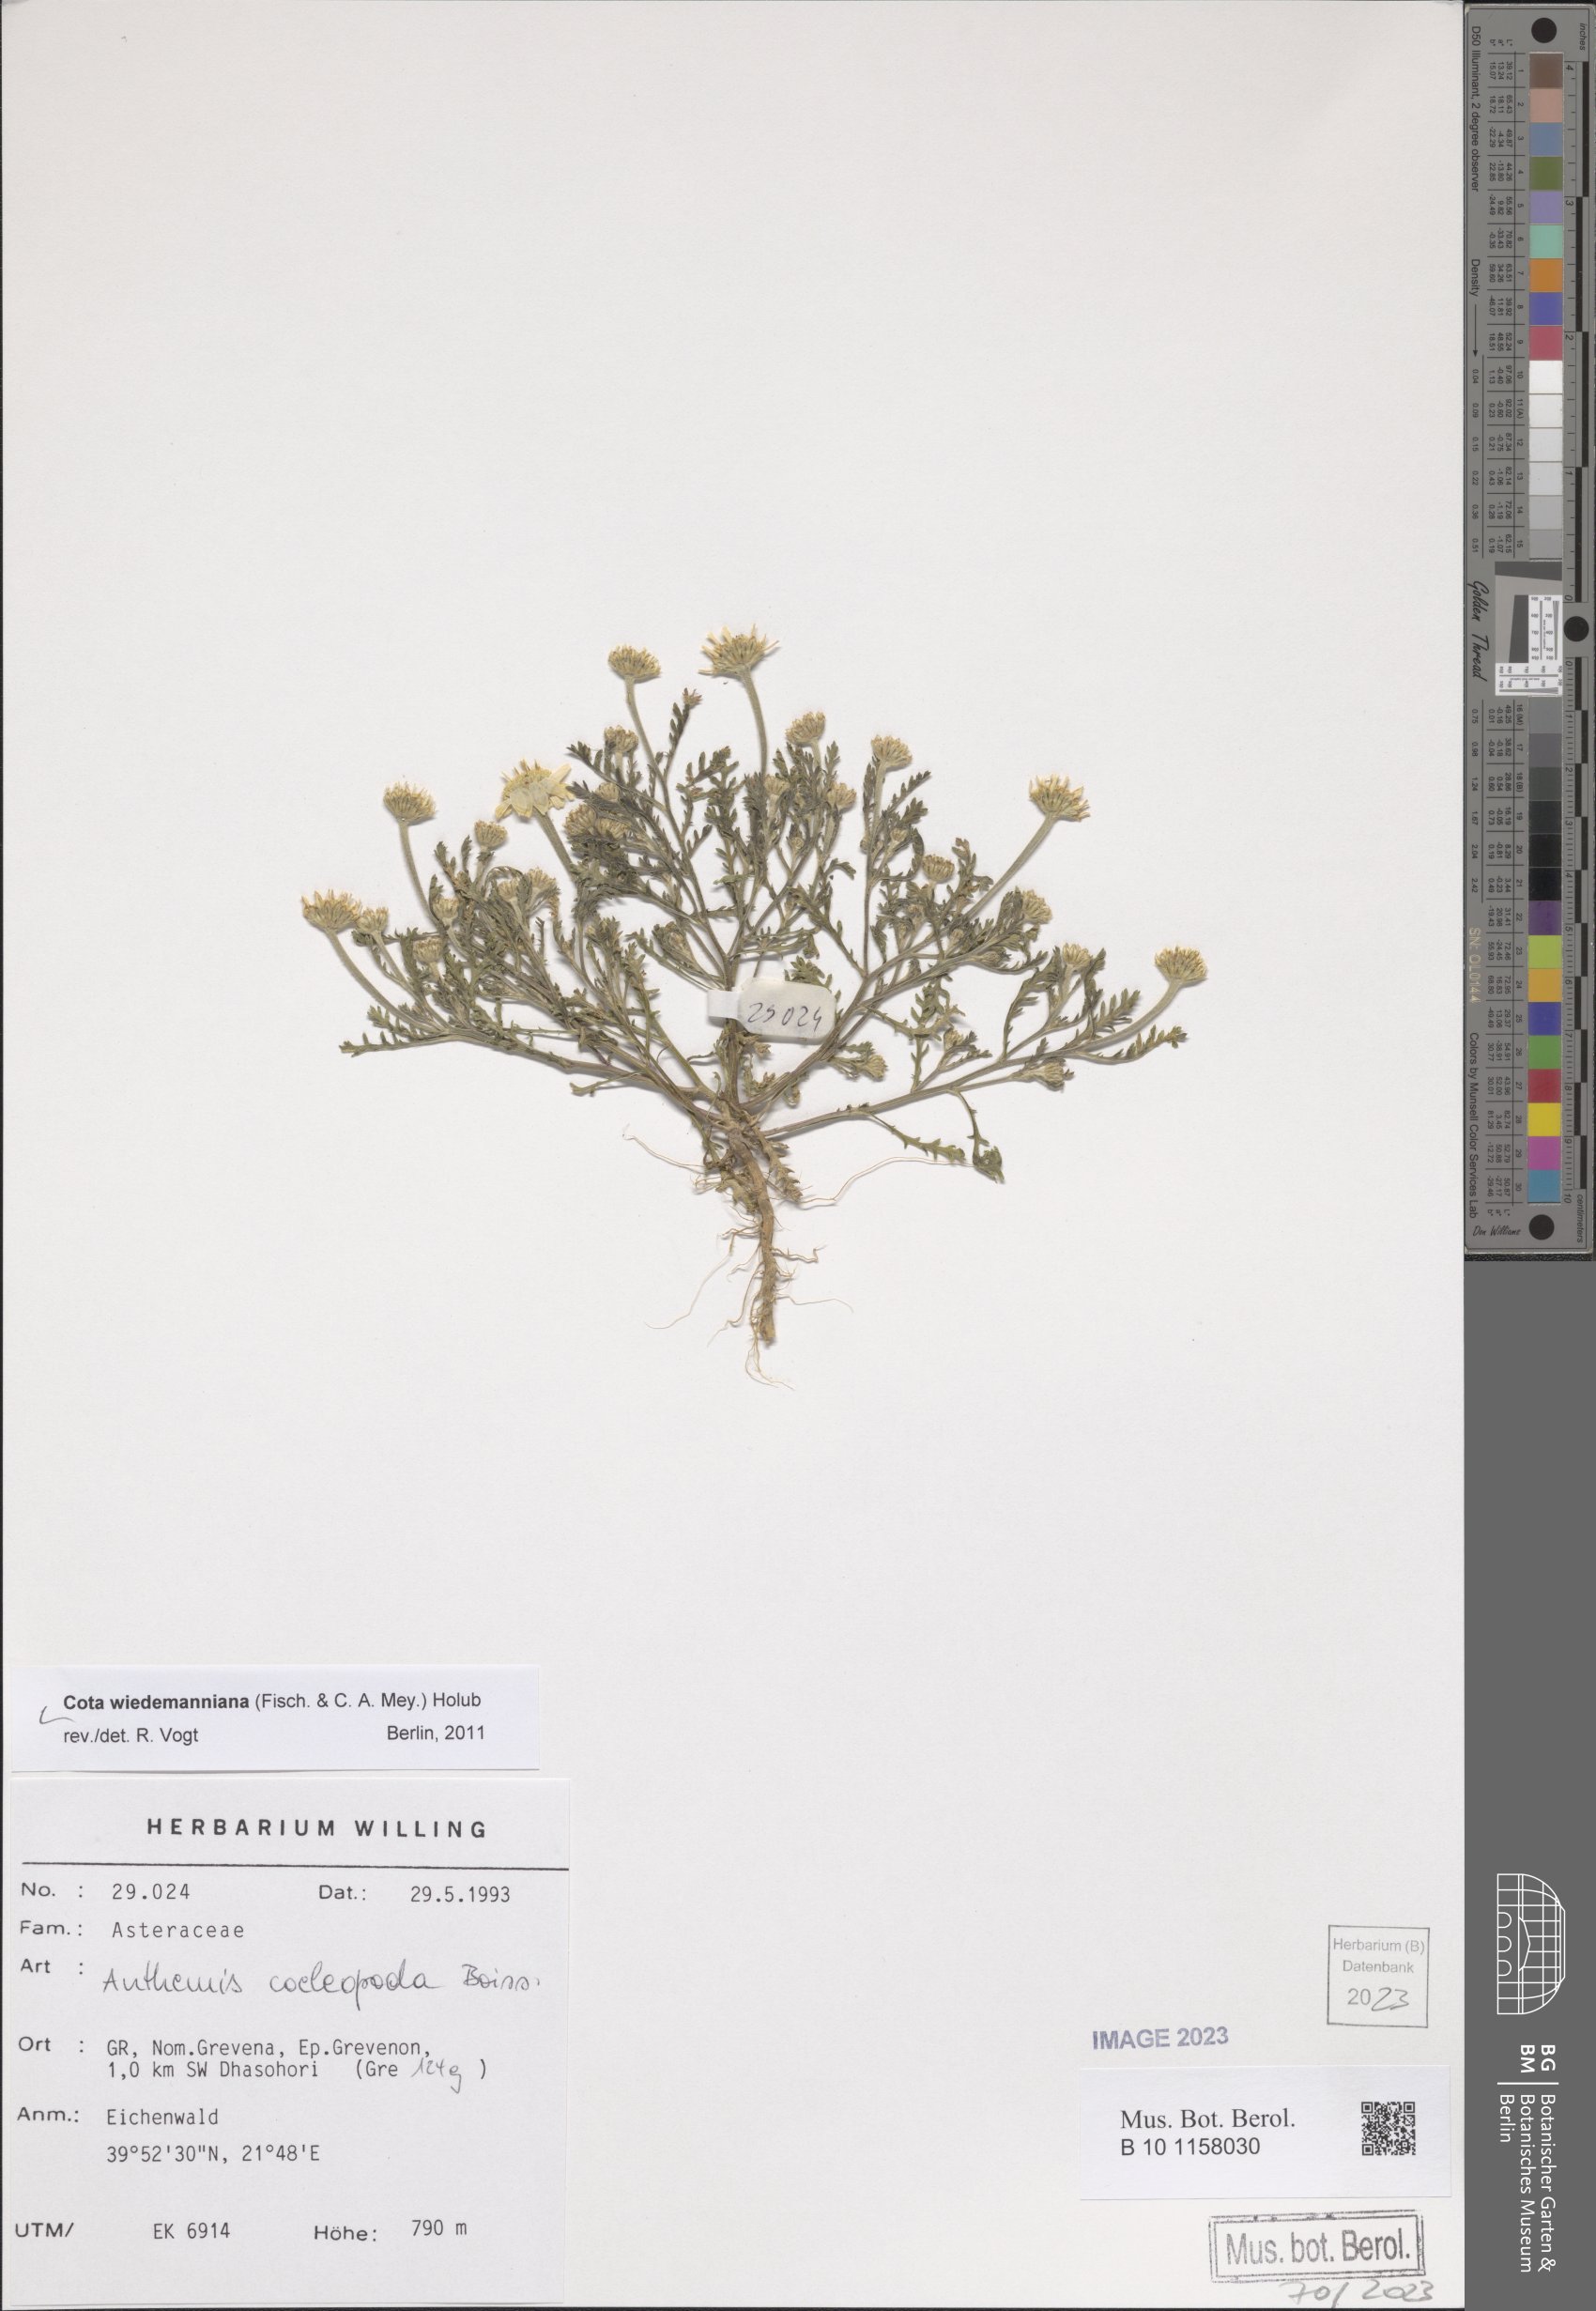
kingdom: Plantae
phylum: Tracheophyta
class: Magnoliopsida
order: Asterales
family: Asteraceae
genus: Cota
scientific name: Cota wiedemanniana
